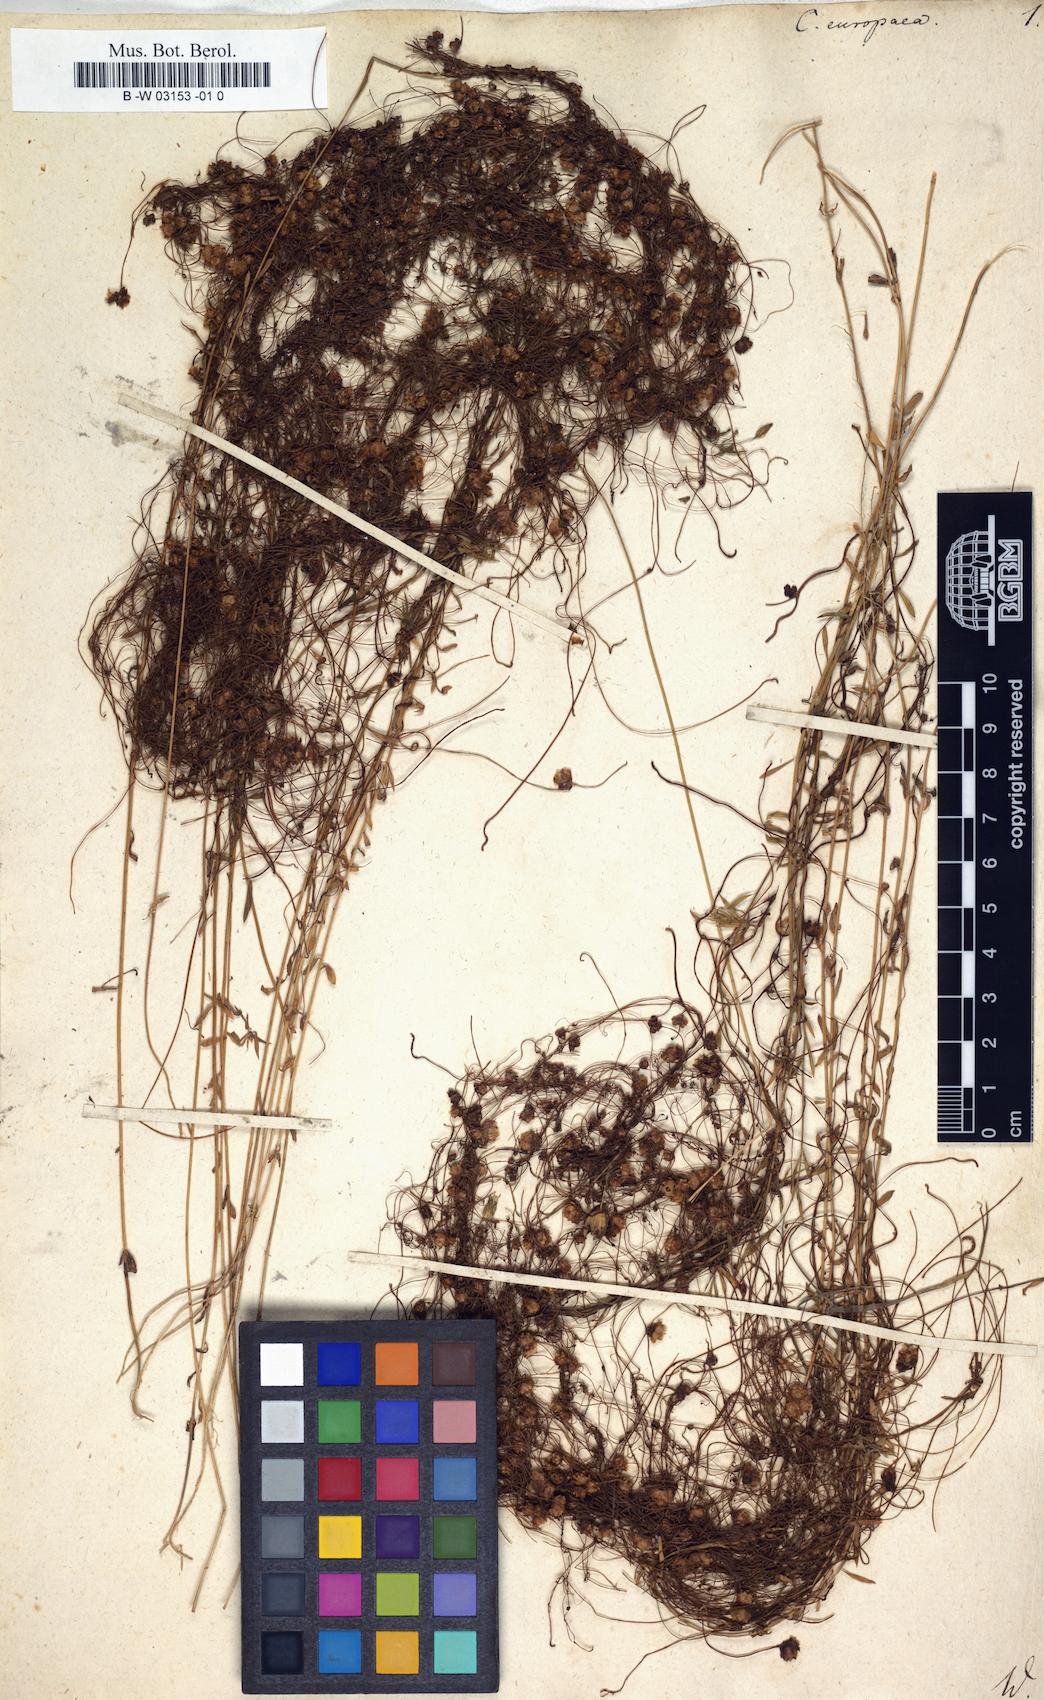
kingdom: Plantae
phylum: Tracheophyta
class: Magnoliopsida
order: Solanales
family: Convolvulaceae
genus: Cuscuta
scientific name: Cuscuta europaea
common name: Greater dodder
